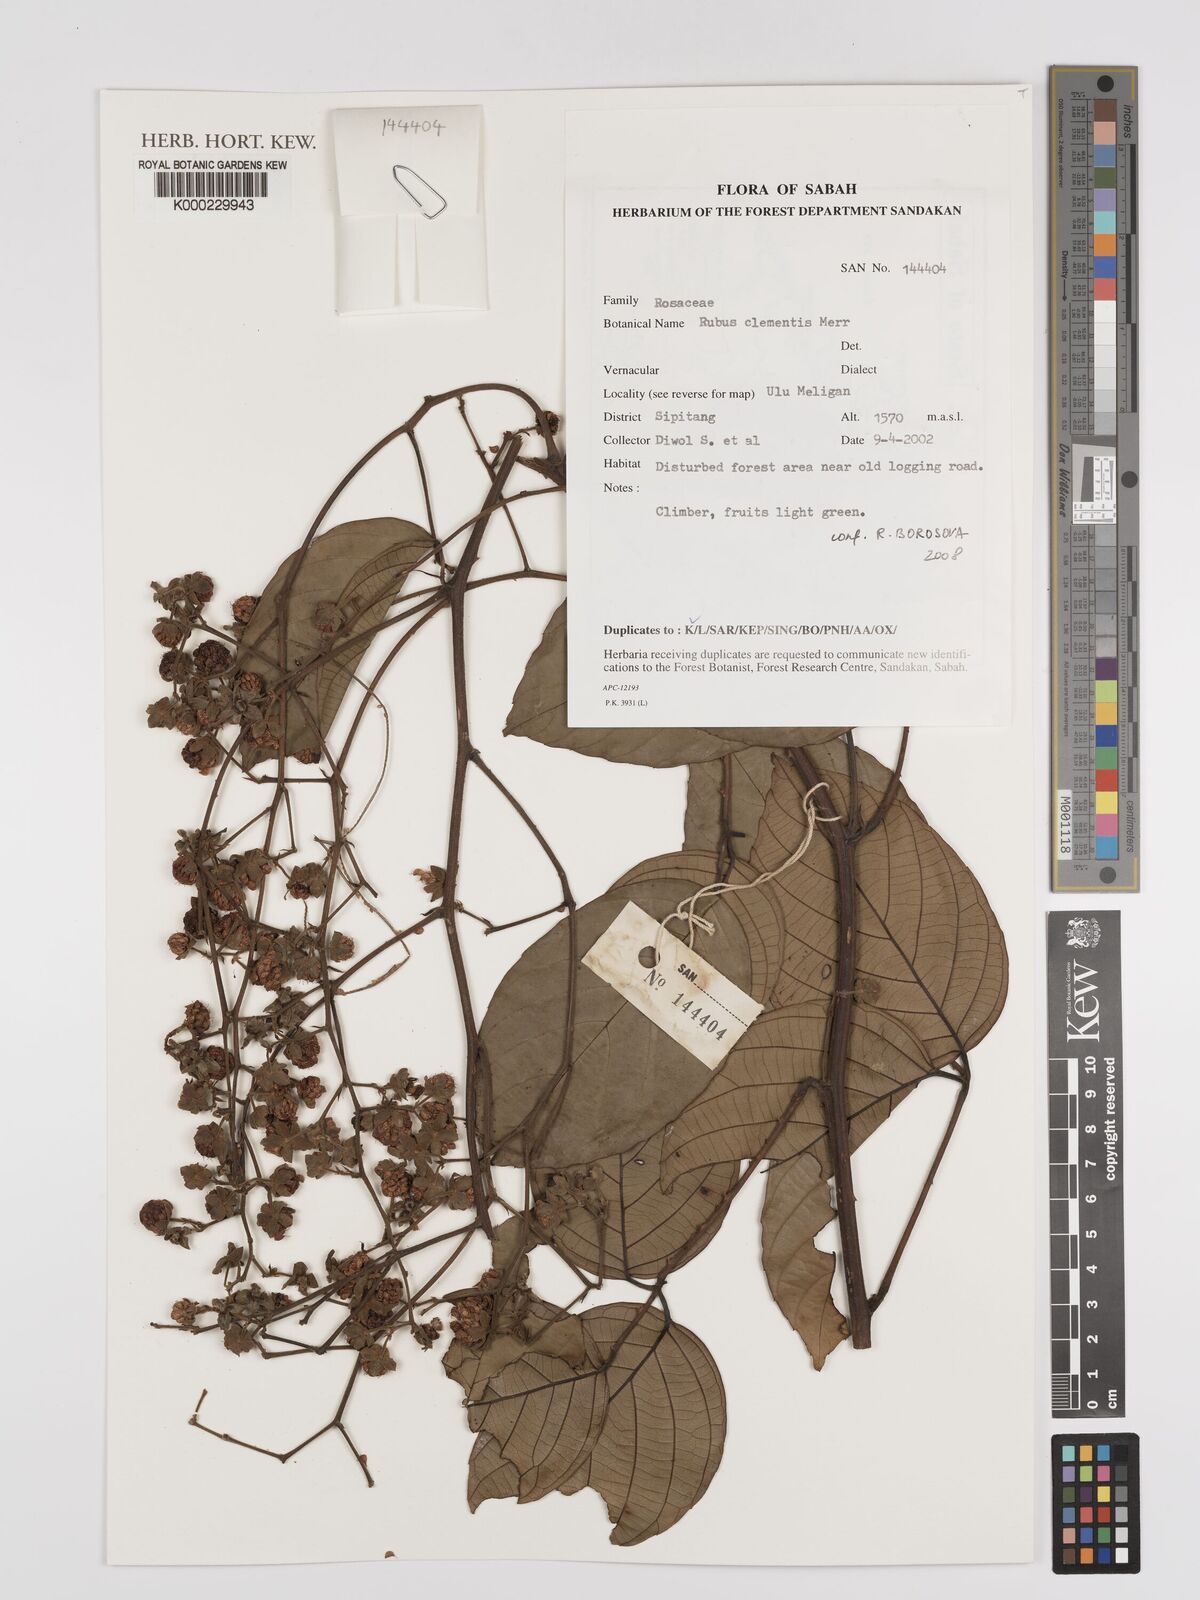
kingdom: Plantae
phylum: Tracheophyta
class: Magnoliopsida
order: Rosales
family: Rosaceae
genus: Rubus
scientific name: Rubus clementis
